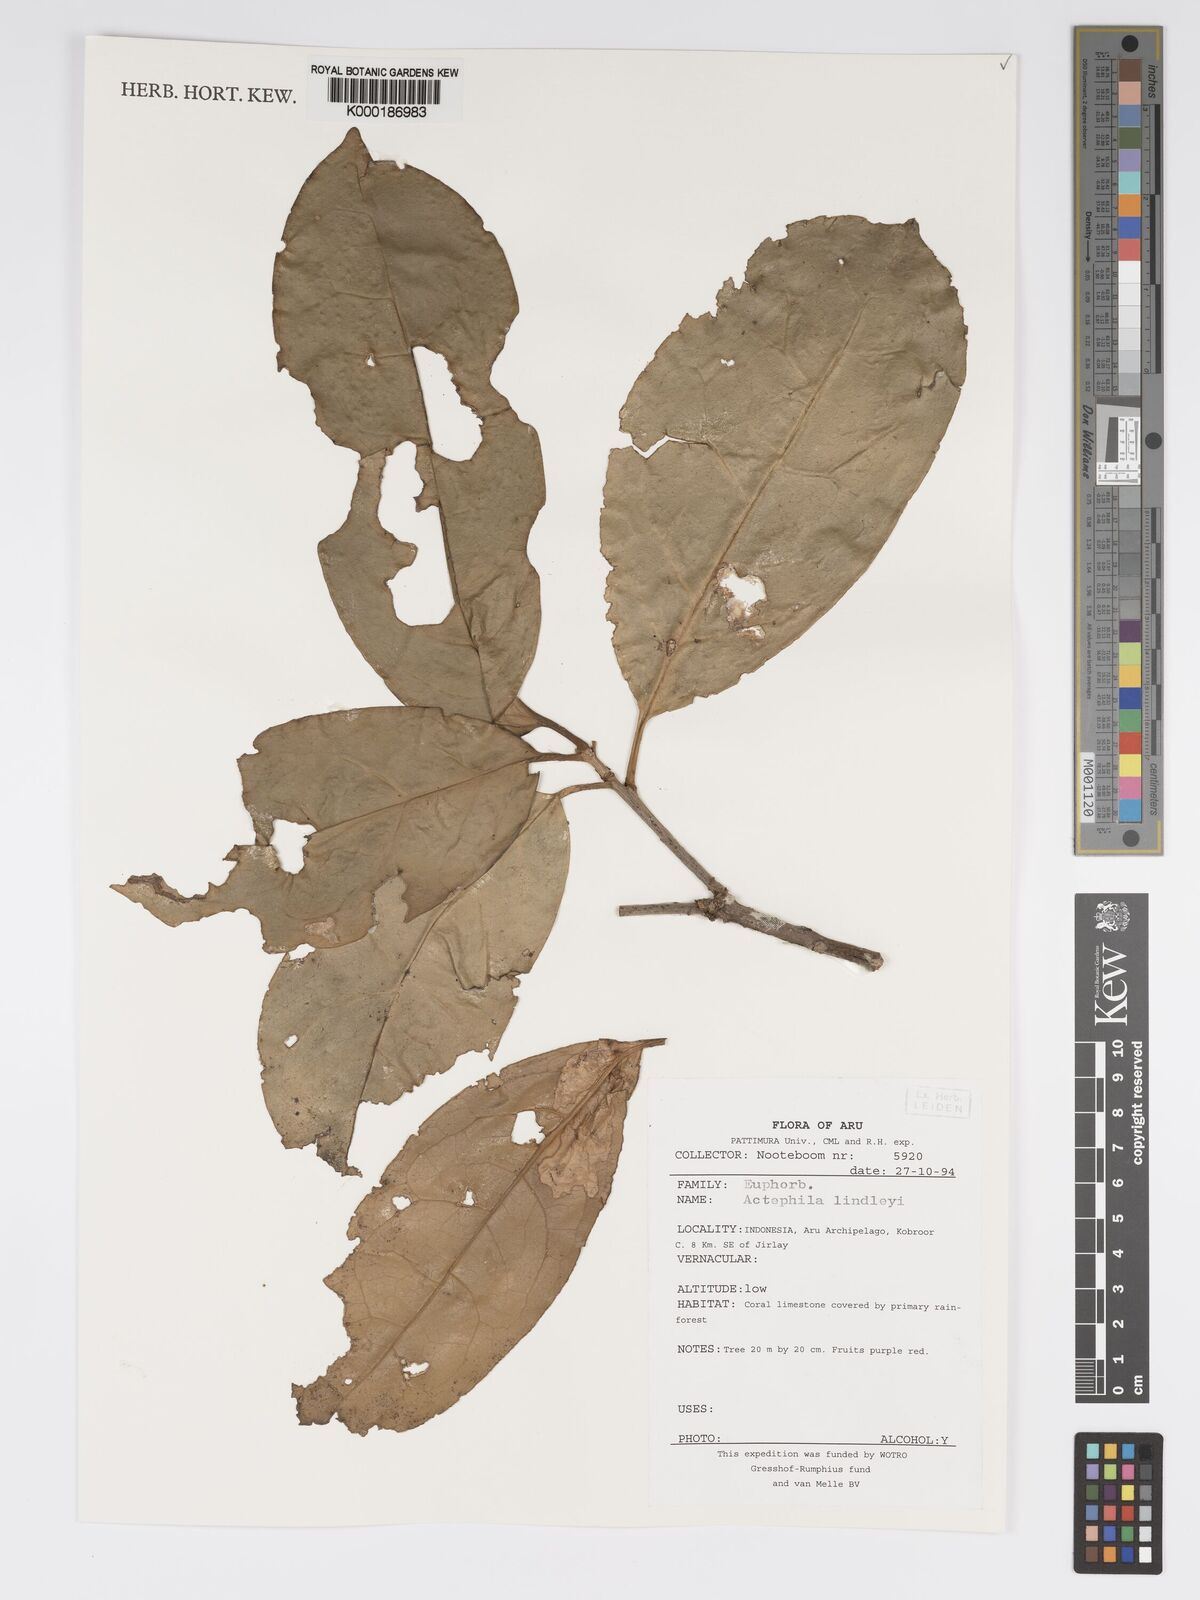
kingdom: Plantae
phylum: Tracheophyta
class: Magnoliopsida
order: Malpighiales
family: Phyllanthaceae
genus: Actephila
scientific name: Actephila lindleyi
